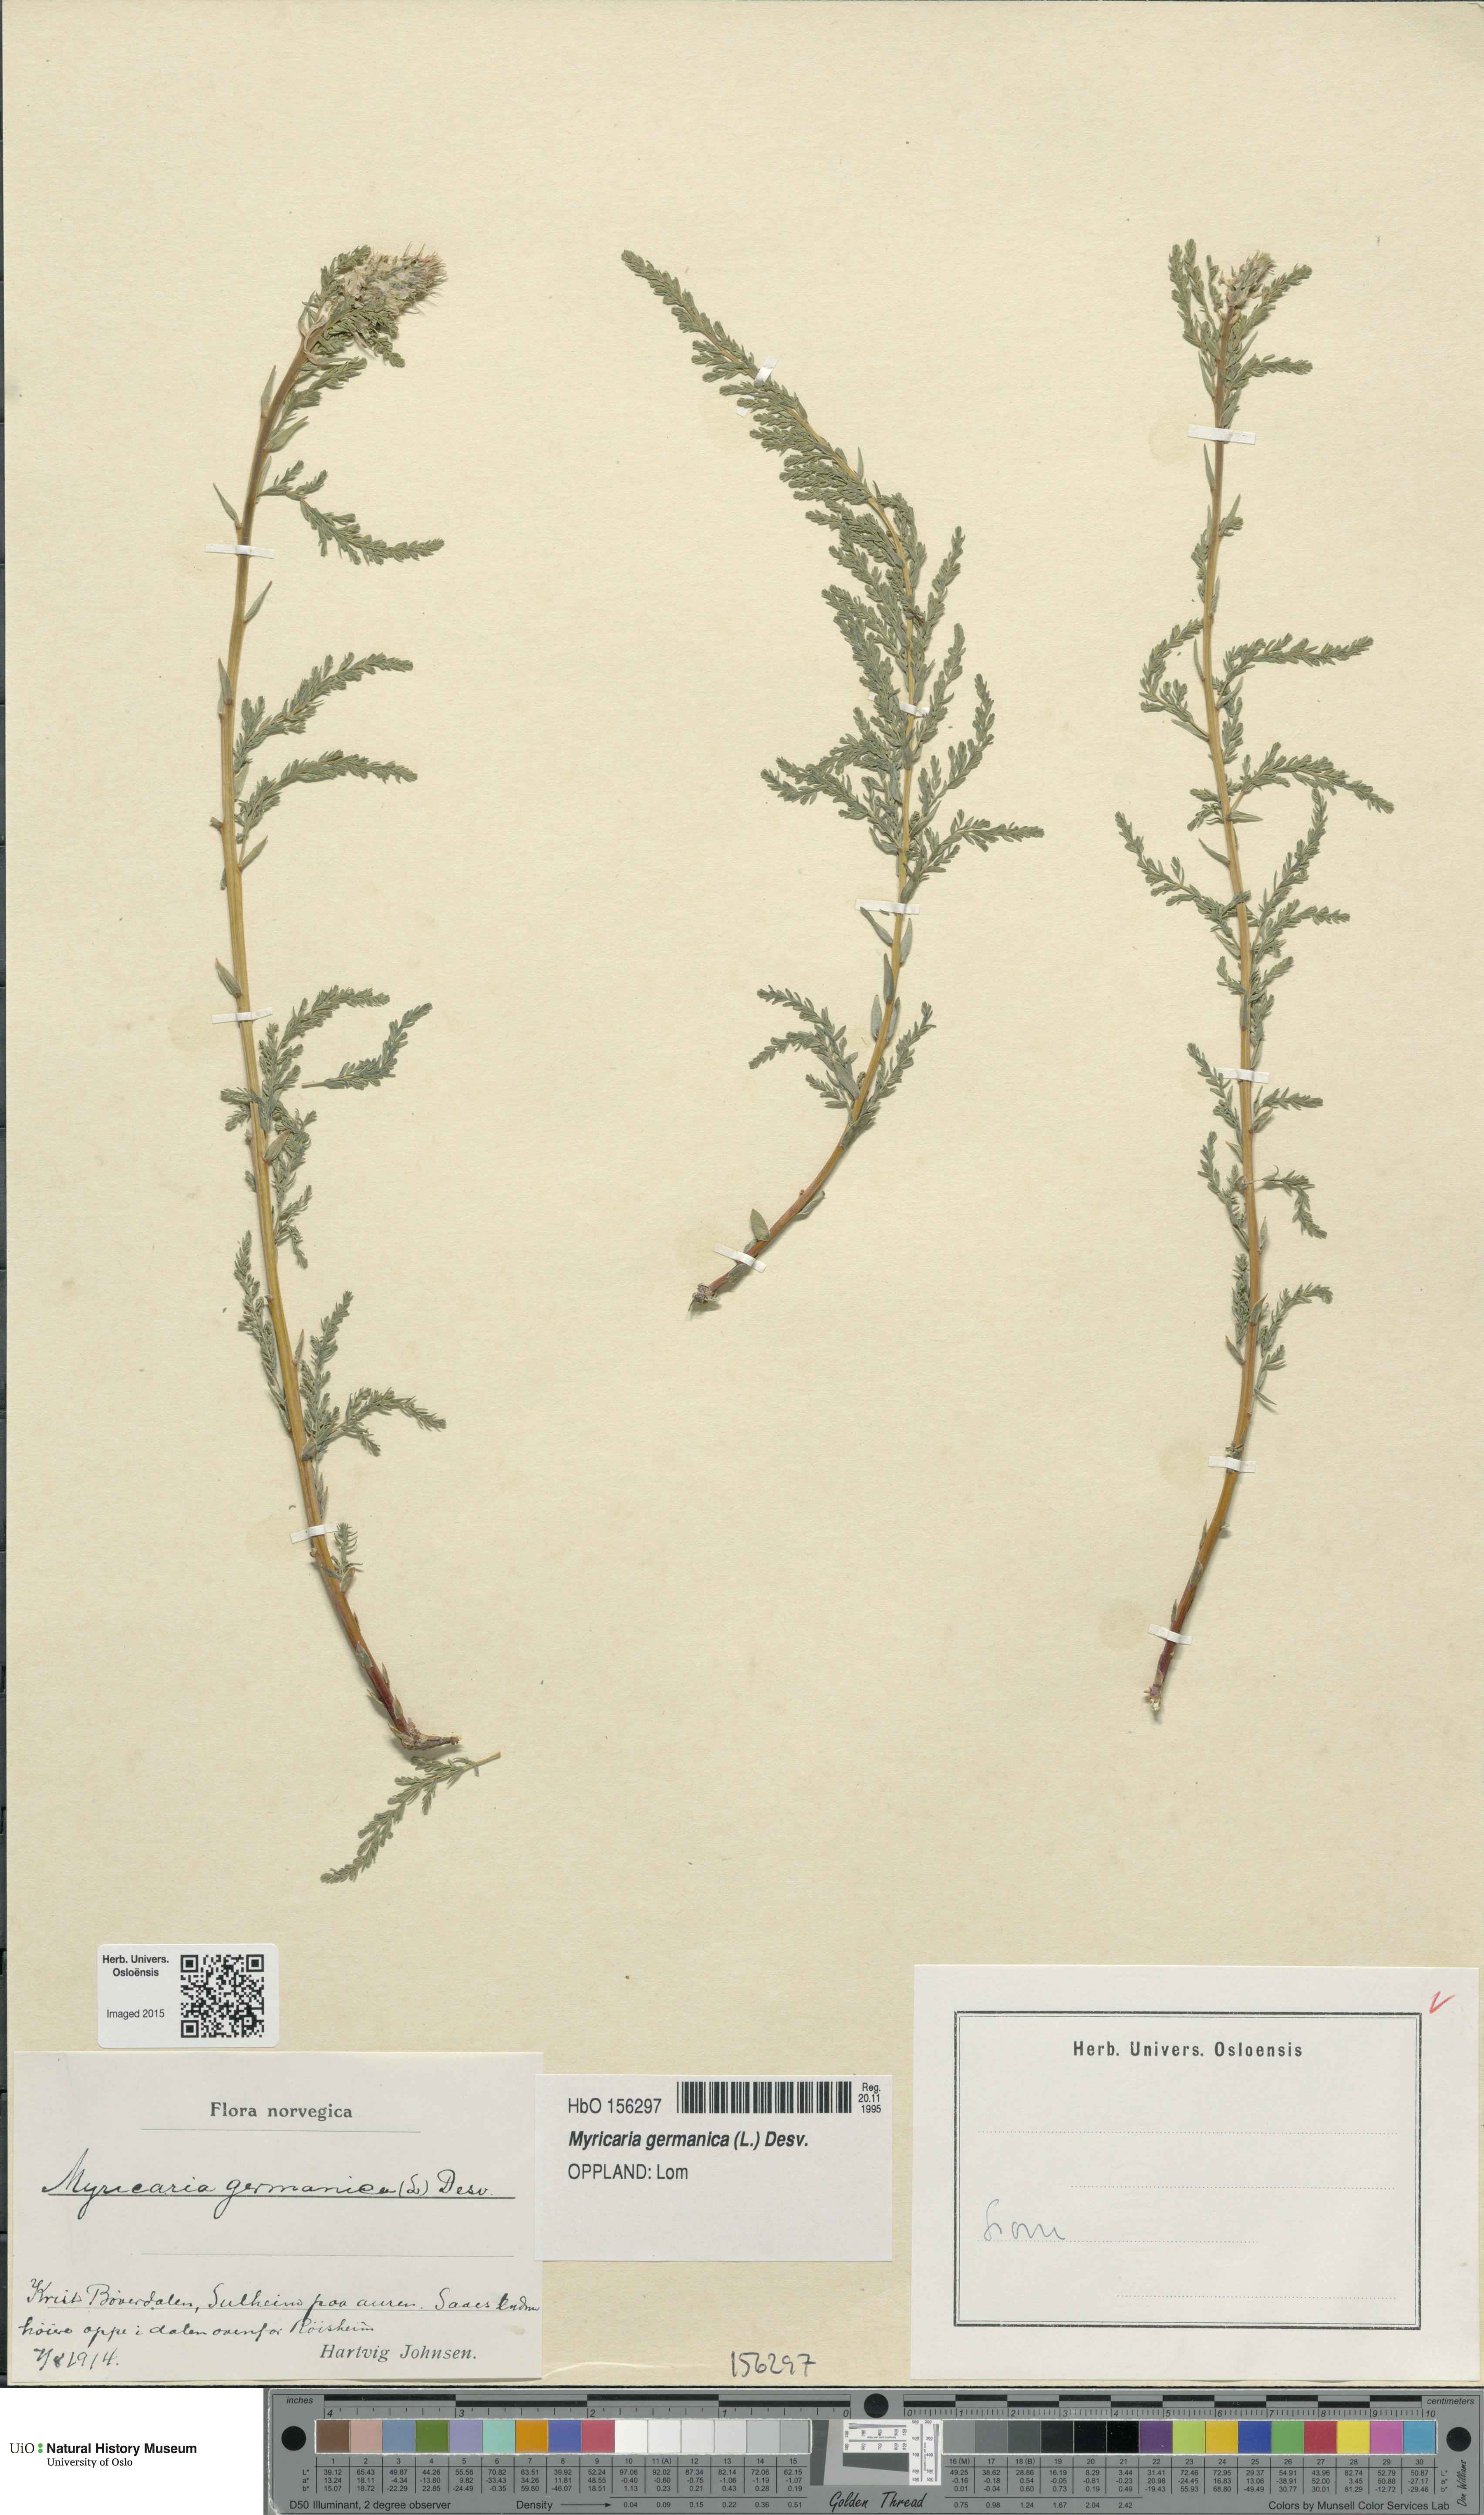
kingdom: Plantae
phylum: Tracheophyta
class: Magnoliopsida
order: Caryophyllales
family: Tamaricaceae
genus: Myricaria
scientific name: Myricaria germanica
